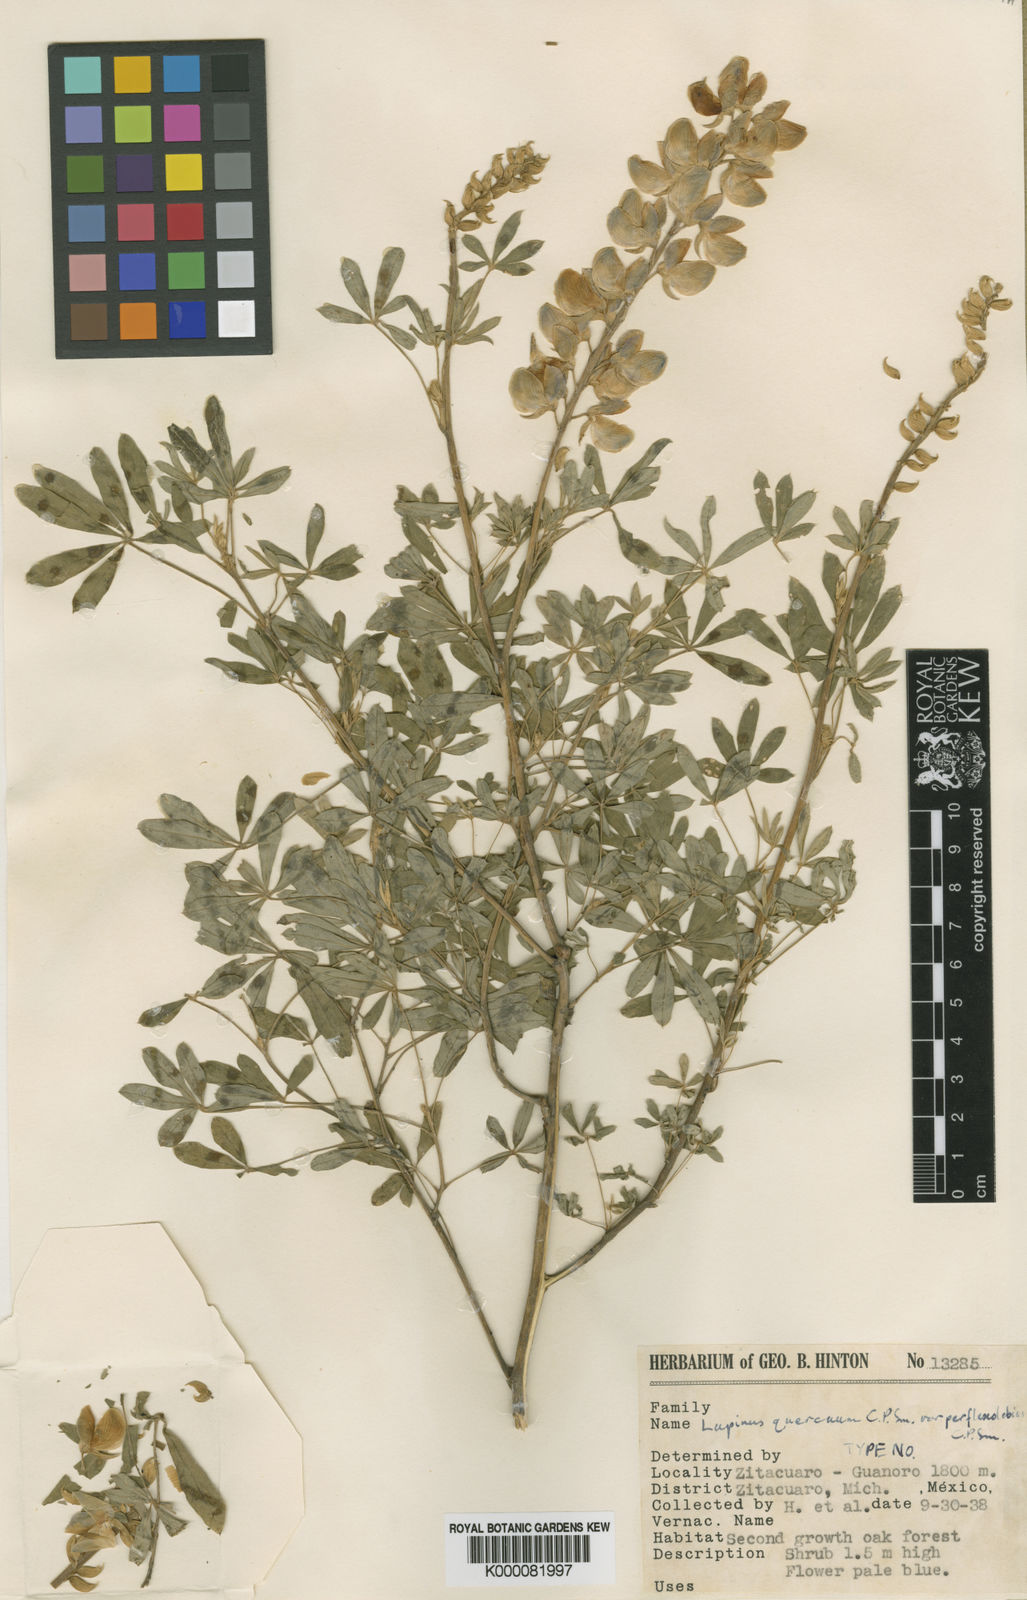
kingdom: Plantae
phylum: Tracheophyta
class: Magnoliopsida
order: Fabales
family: Fabaceae
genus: Lupinus
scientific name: Lupinus quercuum
